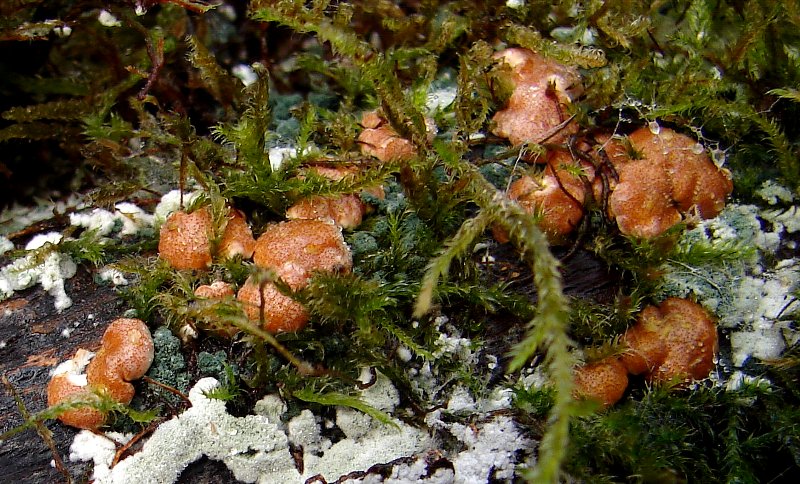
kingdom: Fungi
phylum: Ascomycota
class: Sordariomycetes
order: Hypocreales
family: Hypocreaceae
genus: Trichoderma
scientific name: Trichoderma europaeum
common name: rosabrun kødkerne
